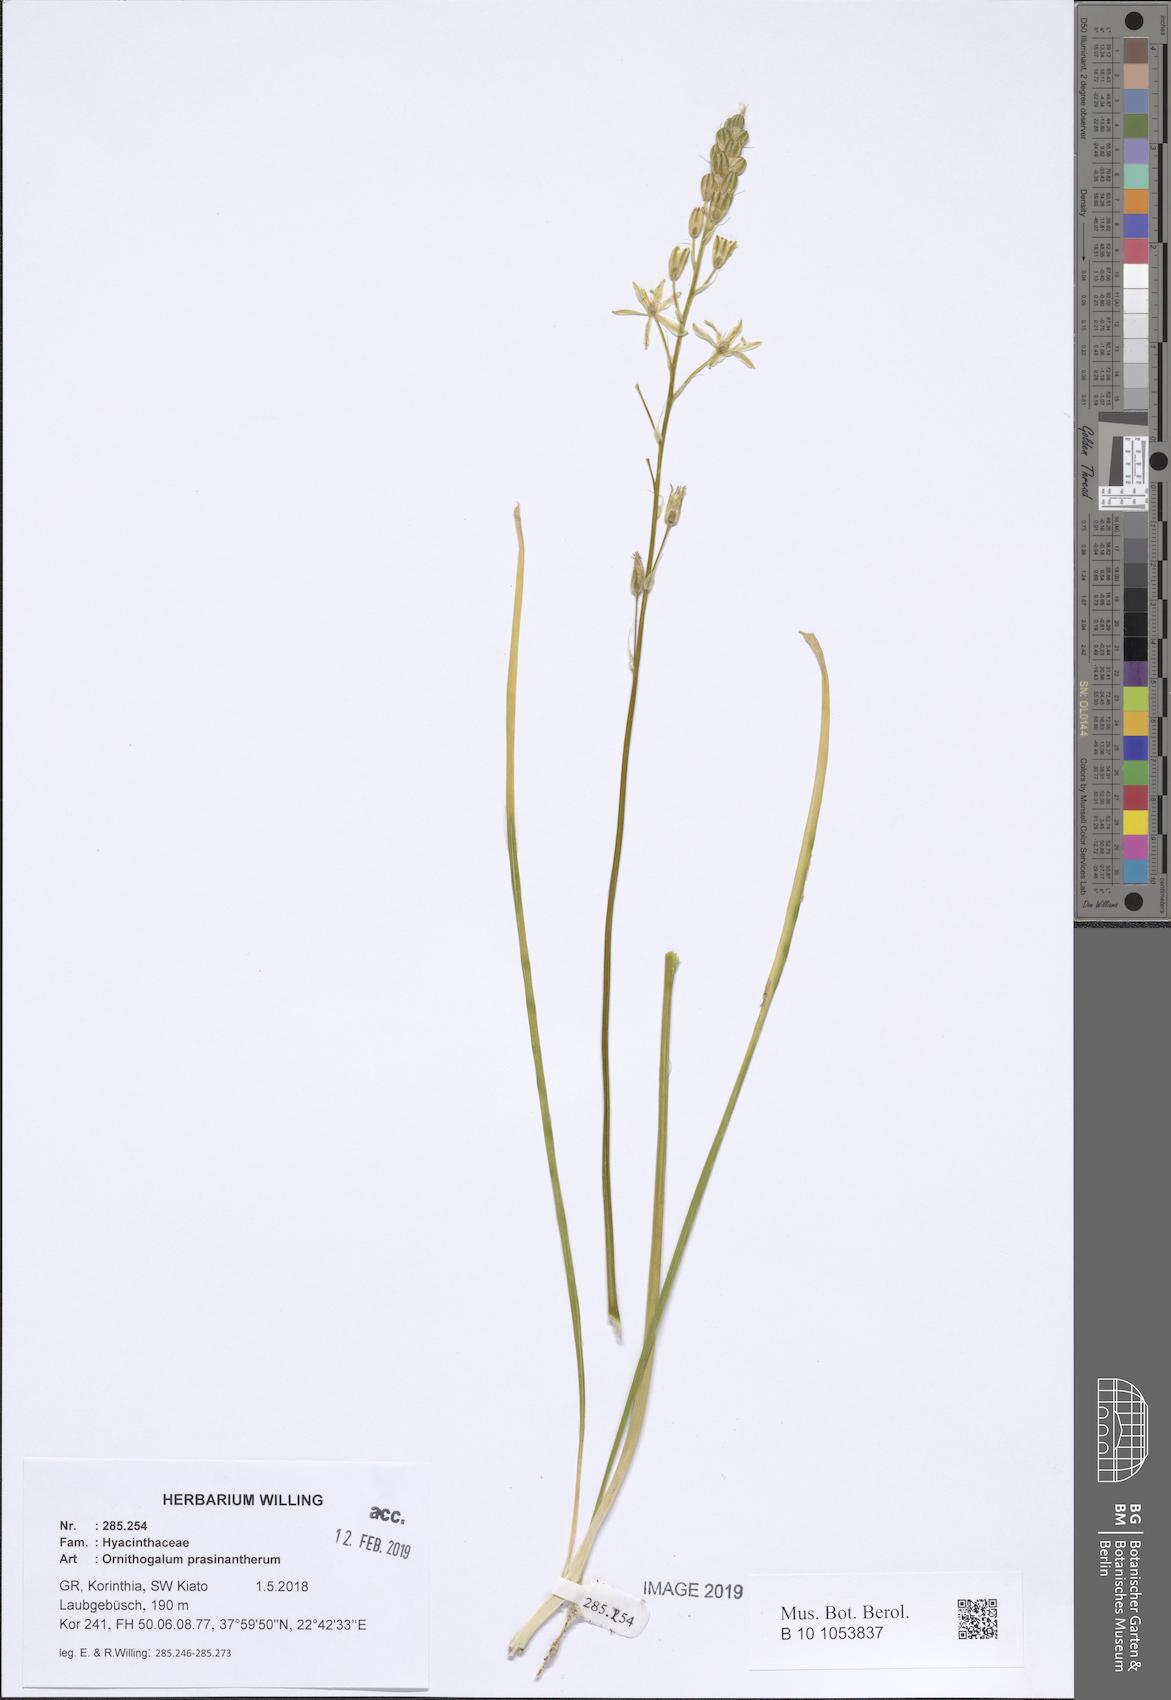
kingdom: Plantae
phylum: Tracheophyta
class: Liliopsida
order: Asparagales
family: Asparagaceae
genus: Ornithogalum
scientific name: Ornithogalum prasinantherum
